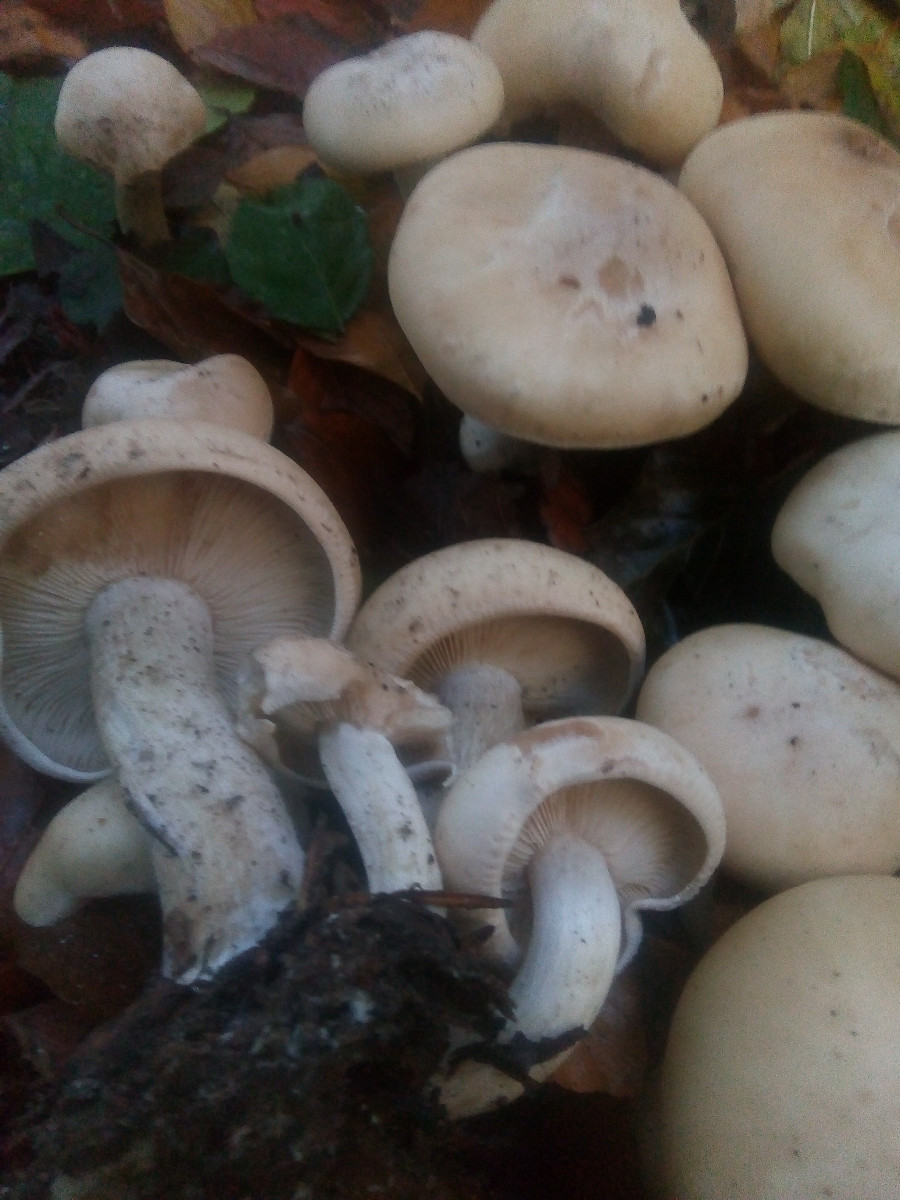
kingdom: Fungi
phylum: Basidiomycota
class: Agaricomycetes
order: Agaricales
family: Tricholomataceae
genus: Lepista
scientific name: Lepista irina
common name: violduftende hekseringshat
